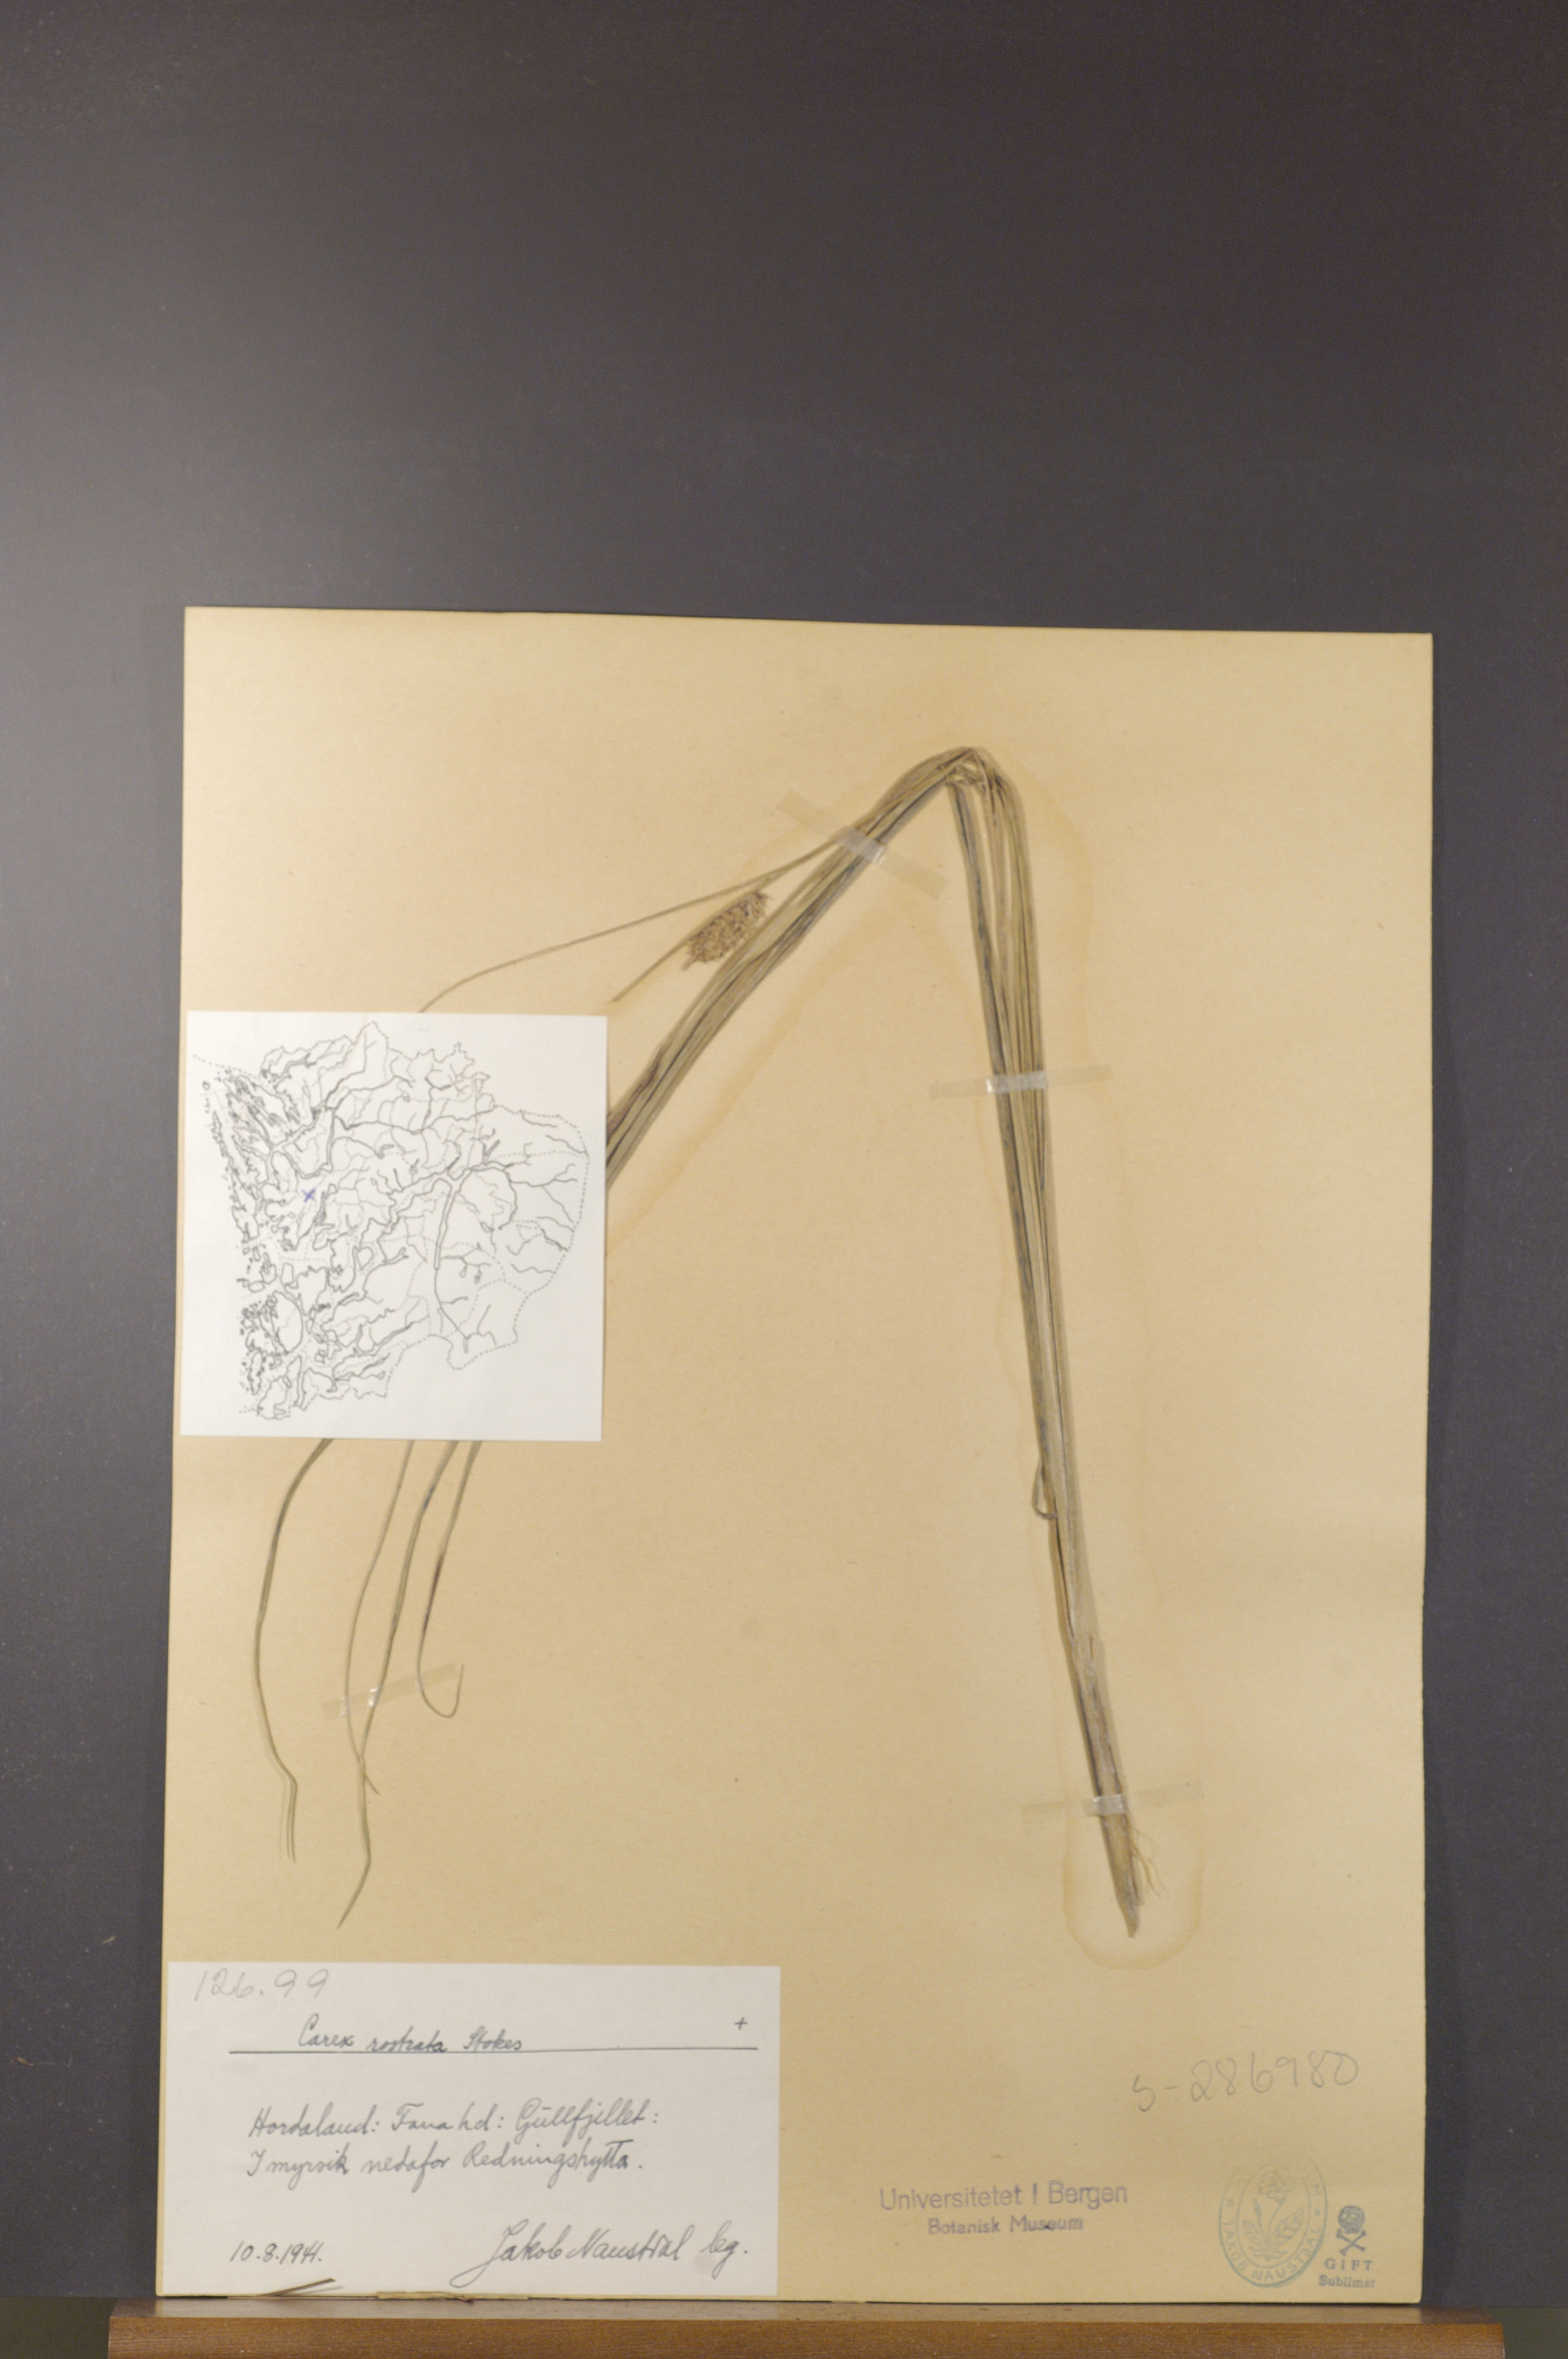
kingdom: Plantae
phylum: Tracheophyta
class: Liliopsida
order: Poales
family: Cyperaceae
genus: Carex
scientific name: Carex rostrata
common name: Bottle sedge
